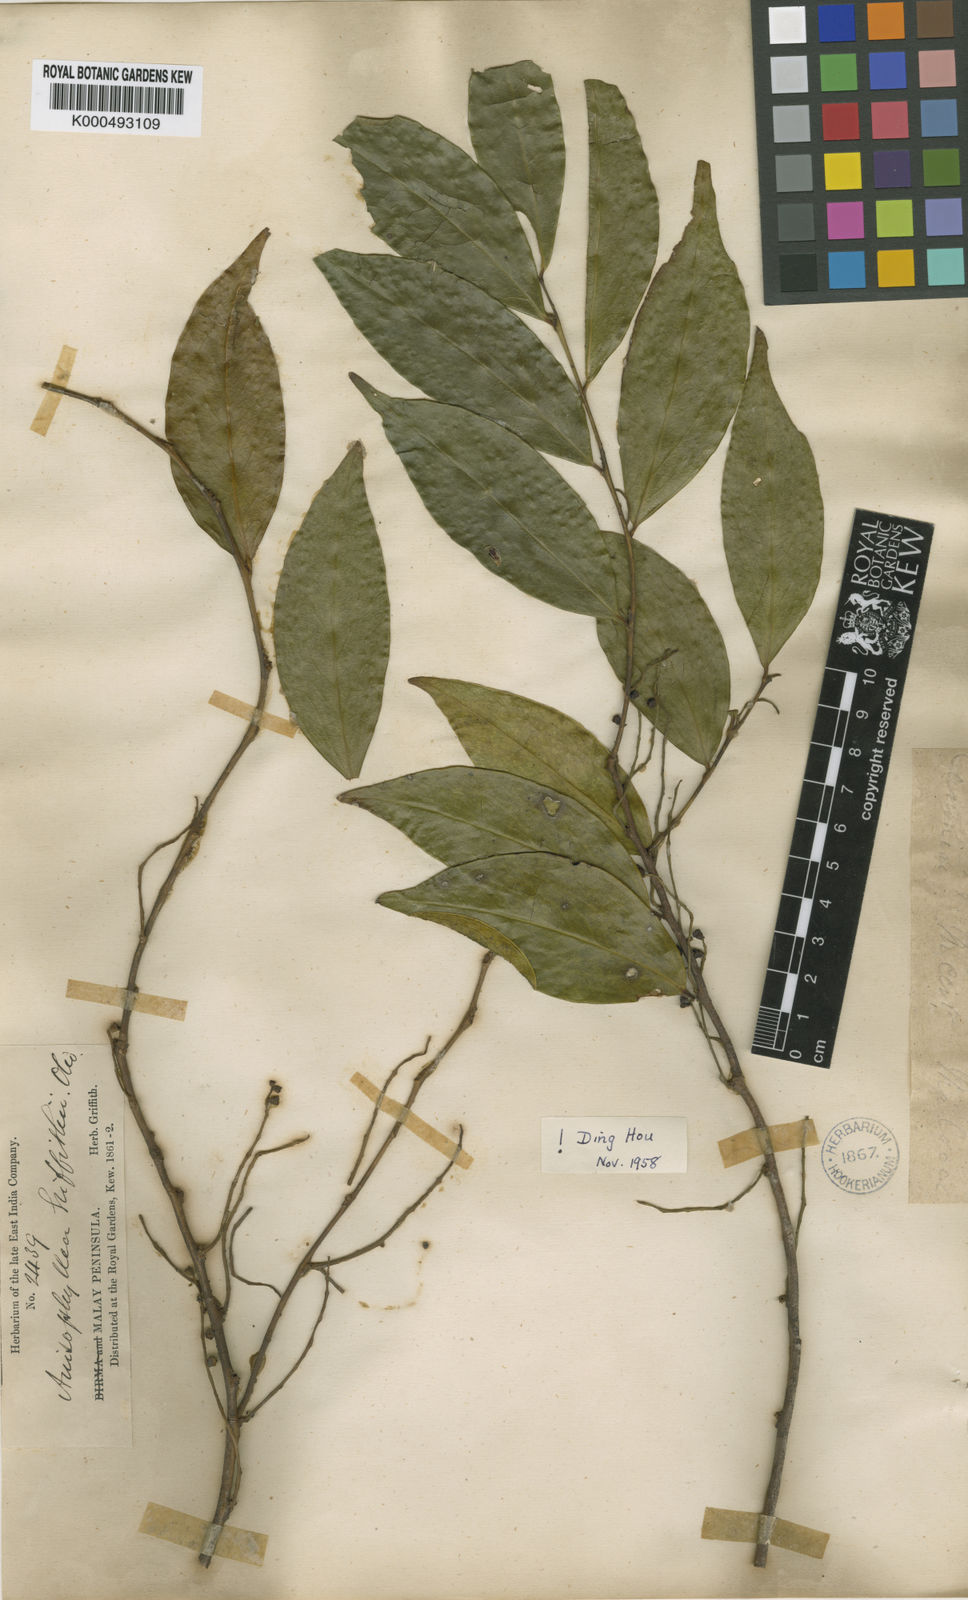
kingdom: Plantae
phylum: Tracheophyta
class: Magnoliopsida
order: Cucurbitales
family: Anisophylleaceae
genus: Anisophyllea
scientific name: Anisophyllea griffithii
